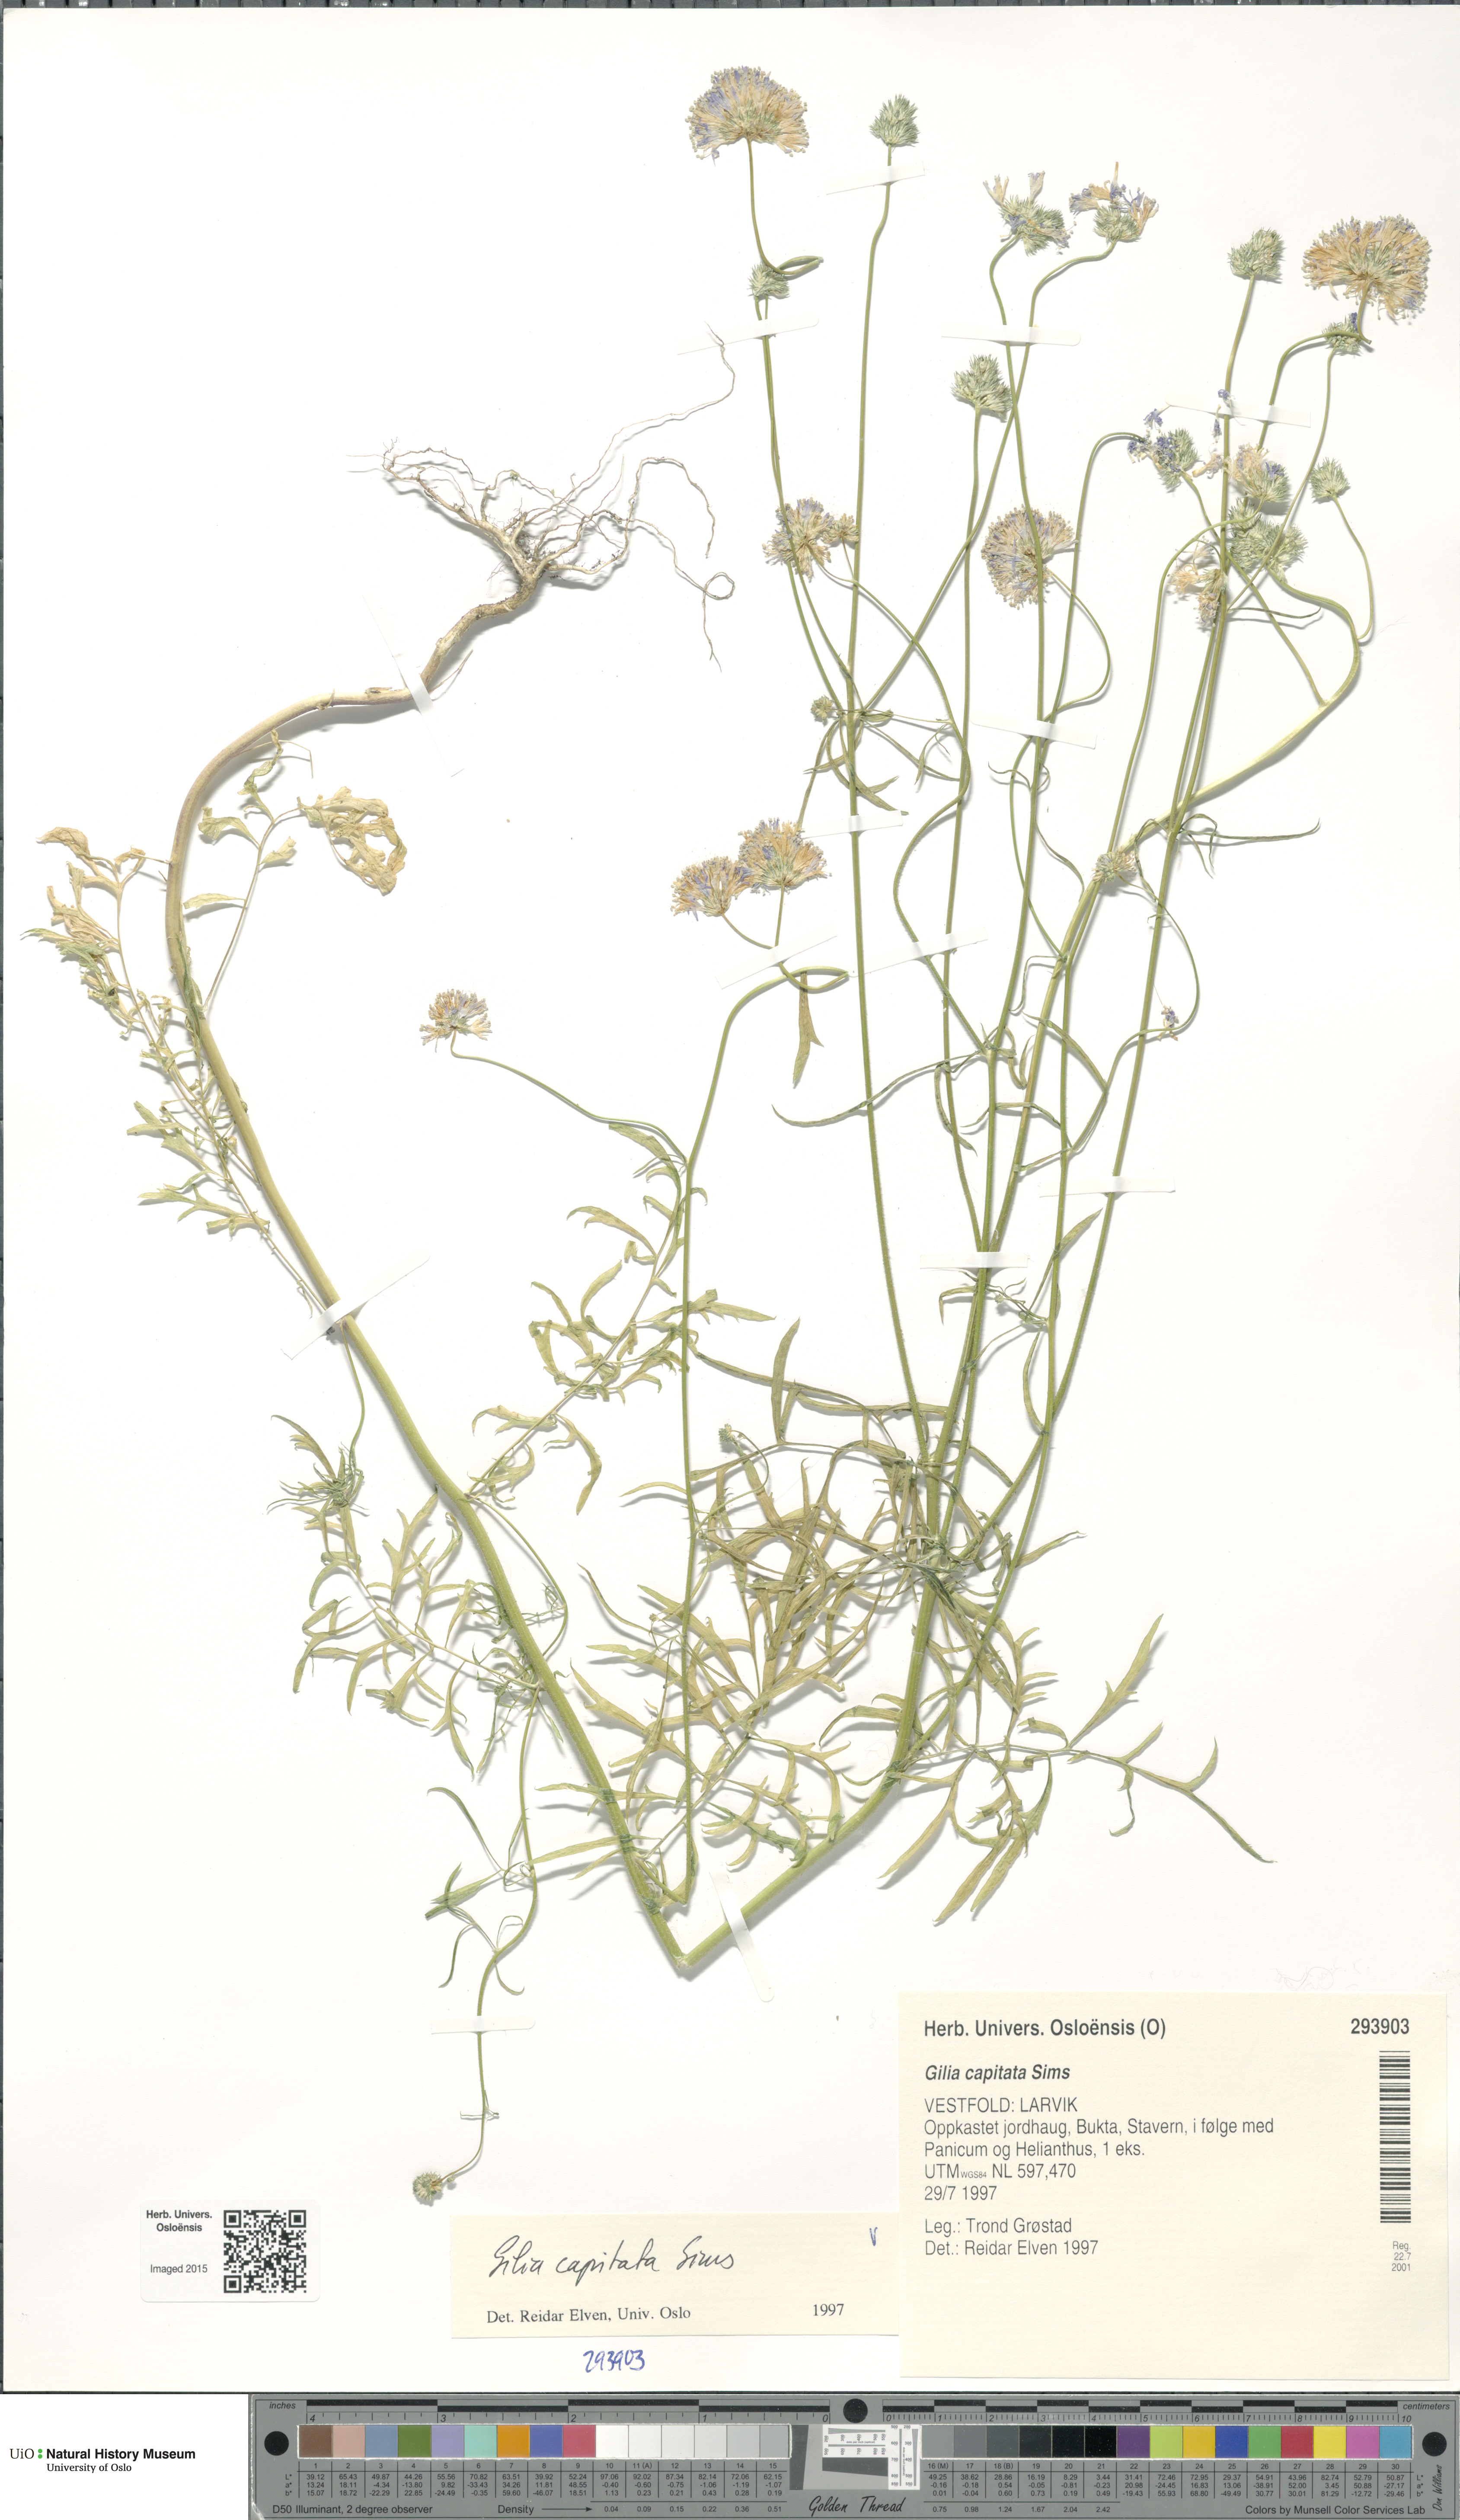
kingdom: Plantae
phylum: Tracheophyta
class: Magnoliopsida
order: Ericales
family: Polemoniaceae
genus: Gilia
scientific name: Gilia capitata
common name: Bluehead gilia
